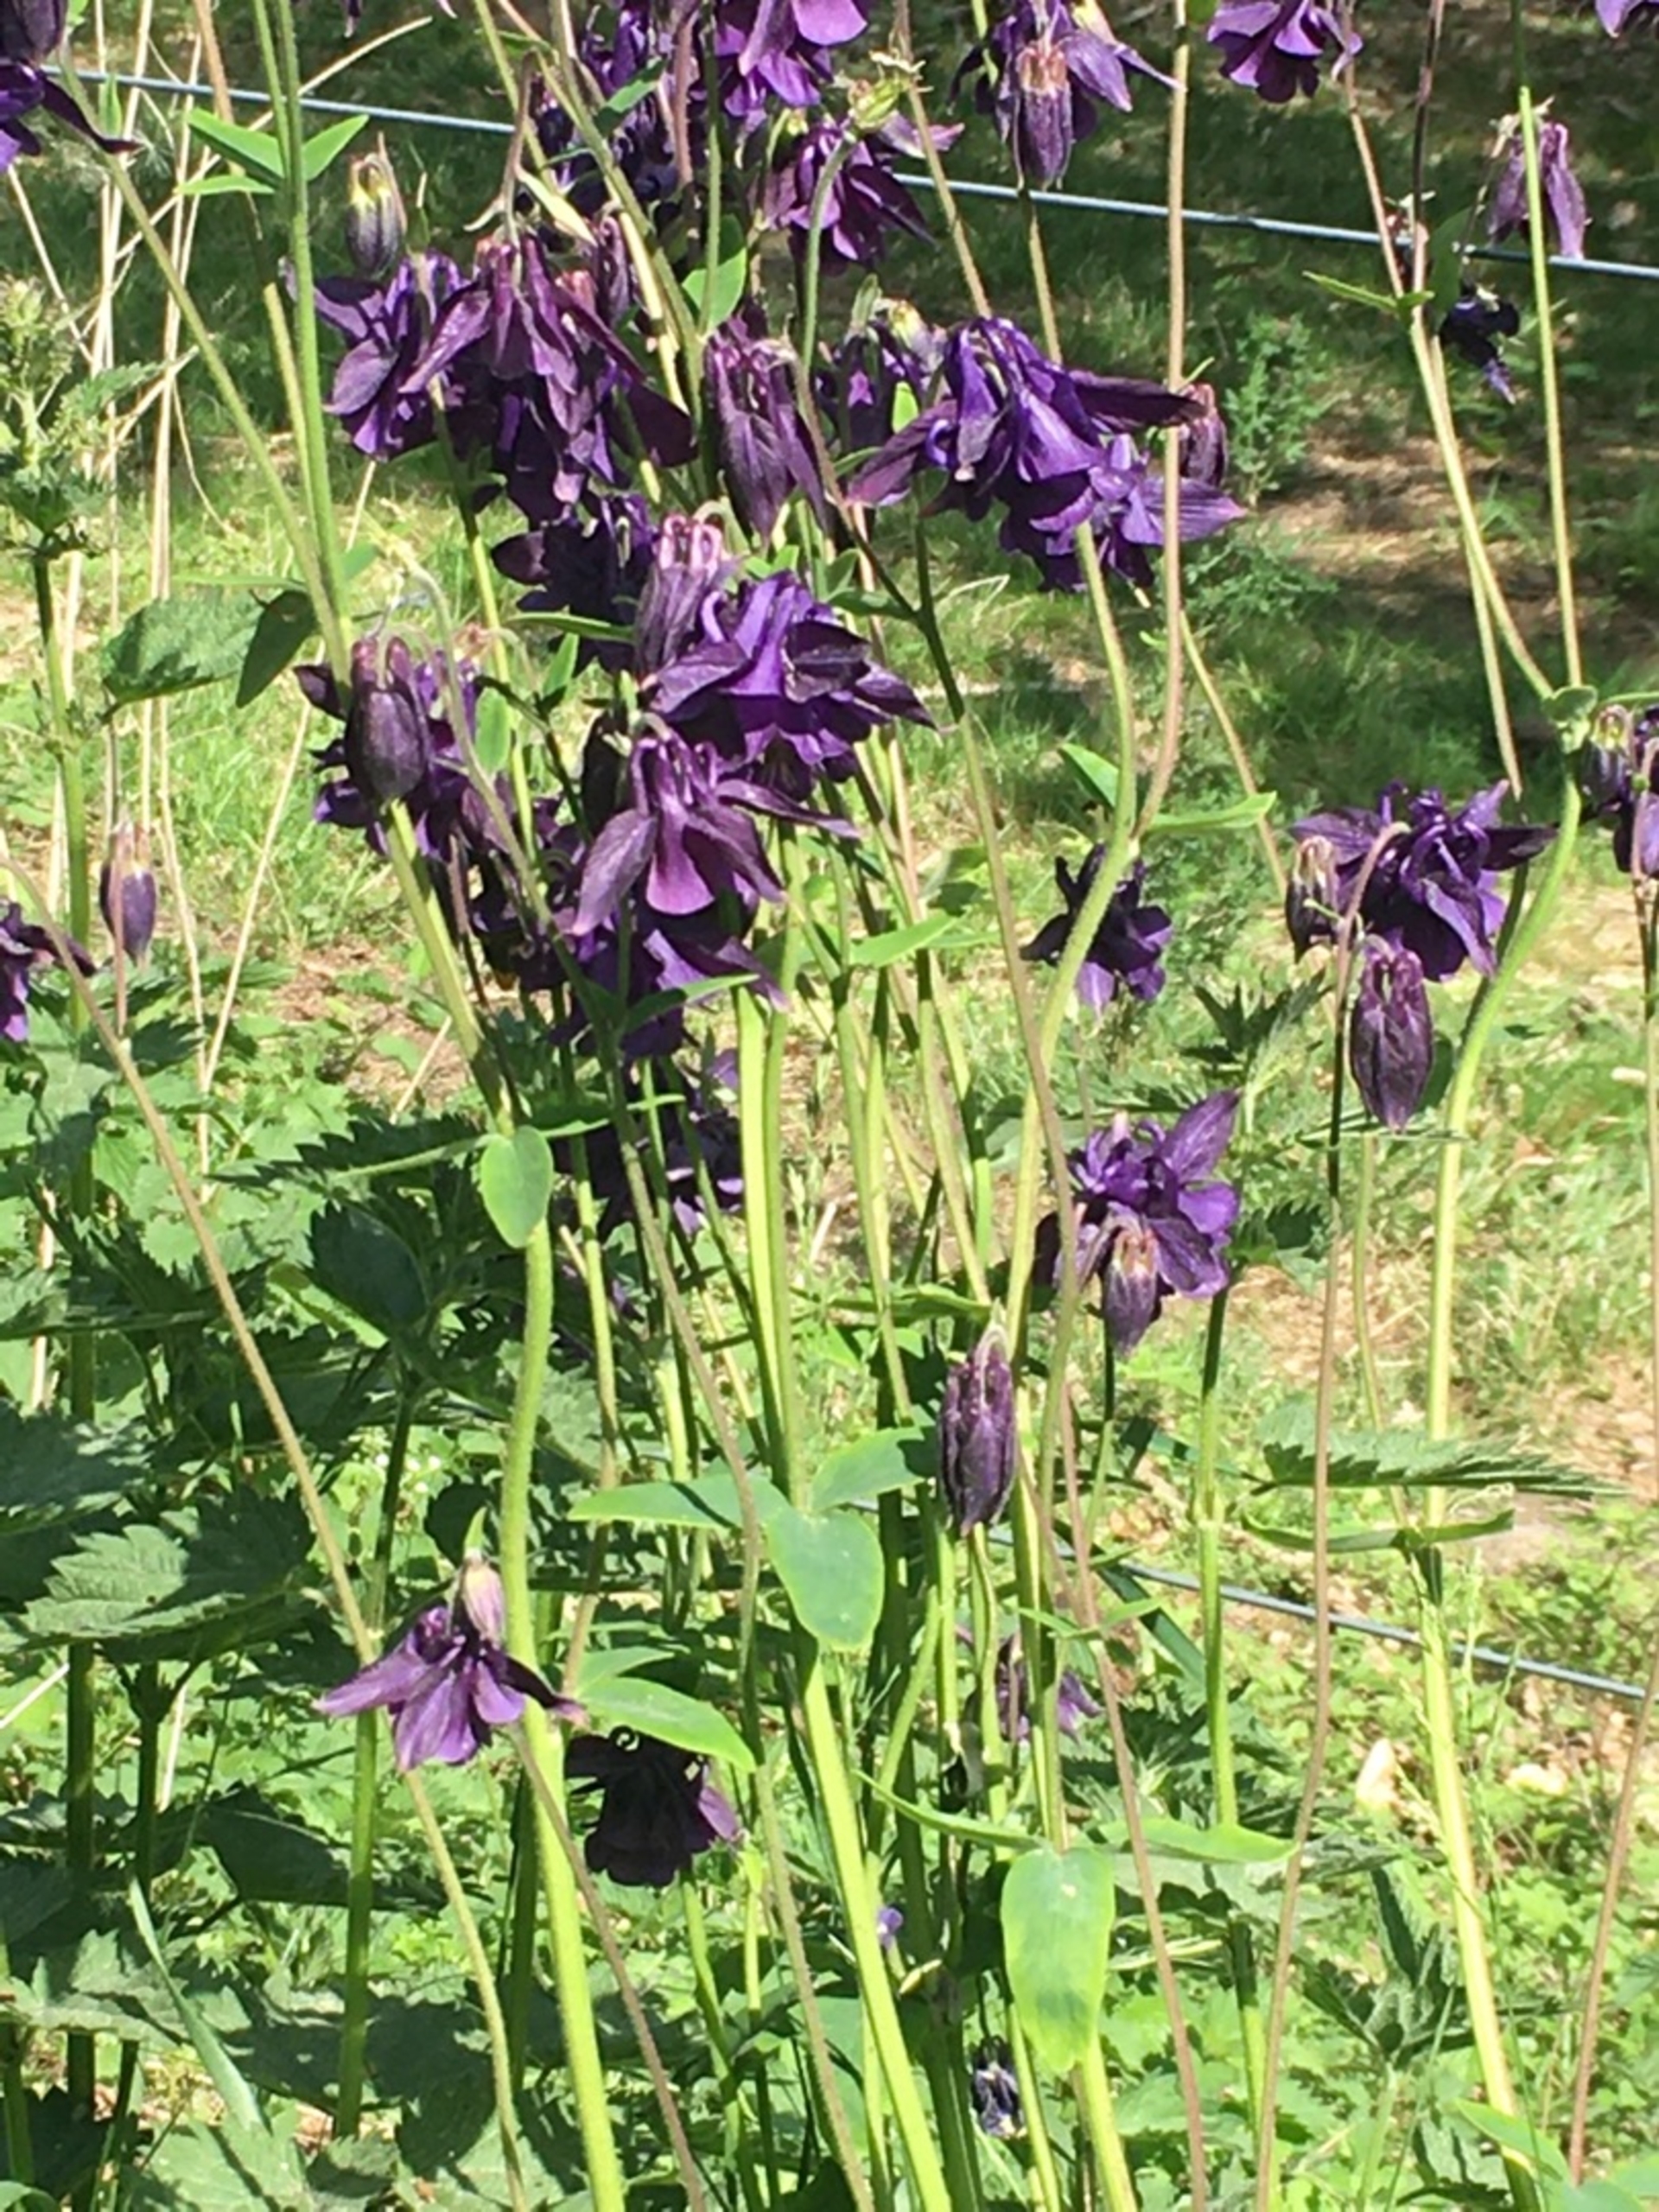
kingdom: Plantae
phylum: Tracheophyta
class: Magnoliopsida
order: Ranunculales
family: Ranunculaceae
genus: Aquilegia
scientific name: Aquilegia vulgaris
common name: Akeleje
